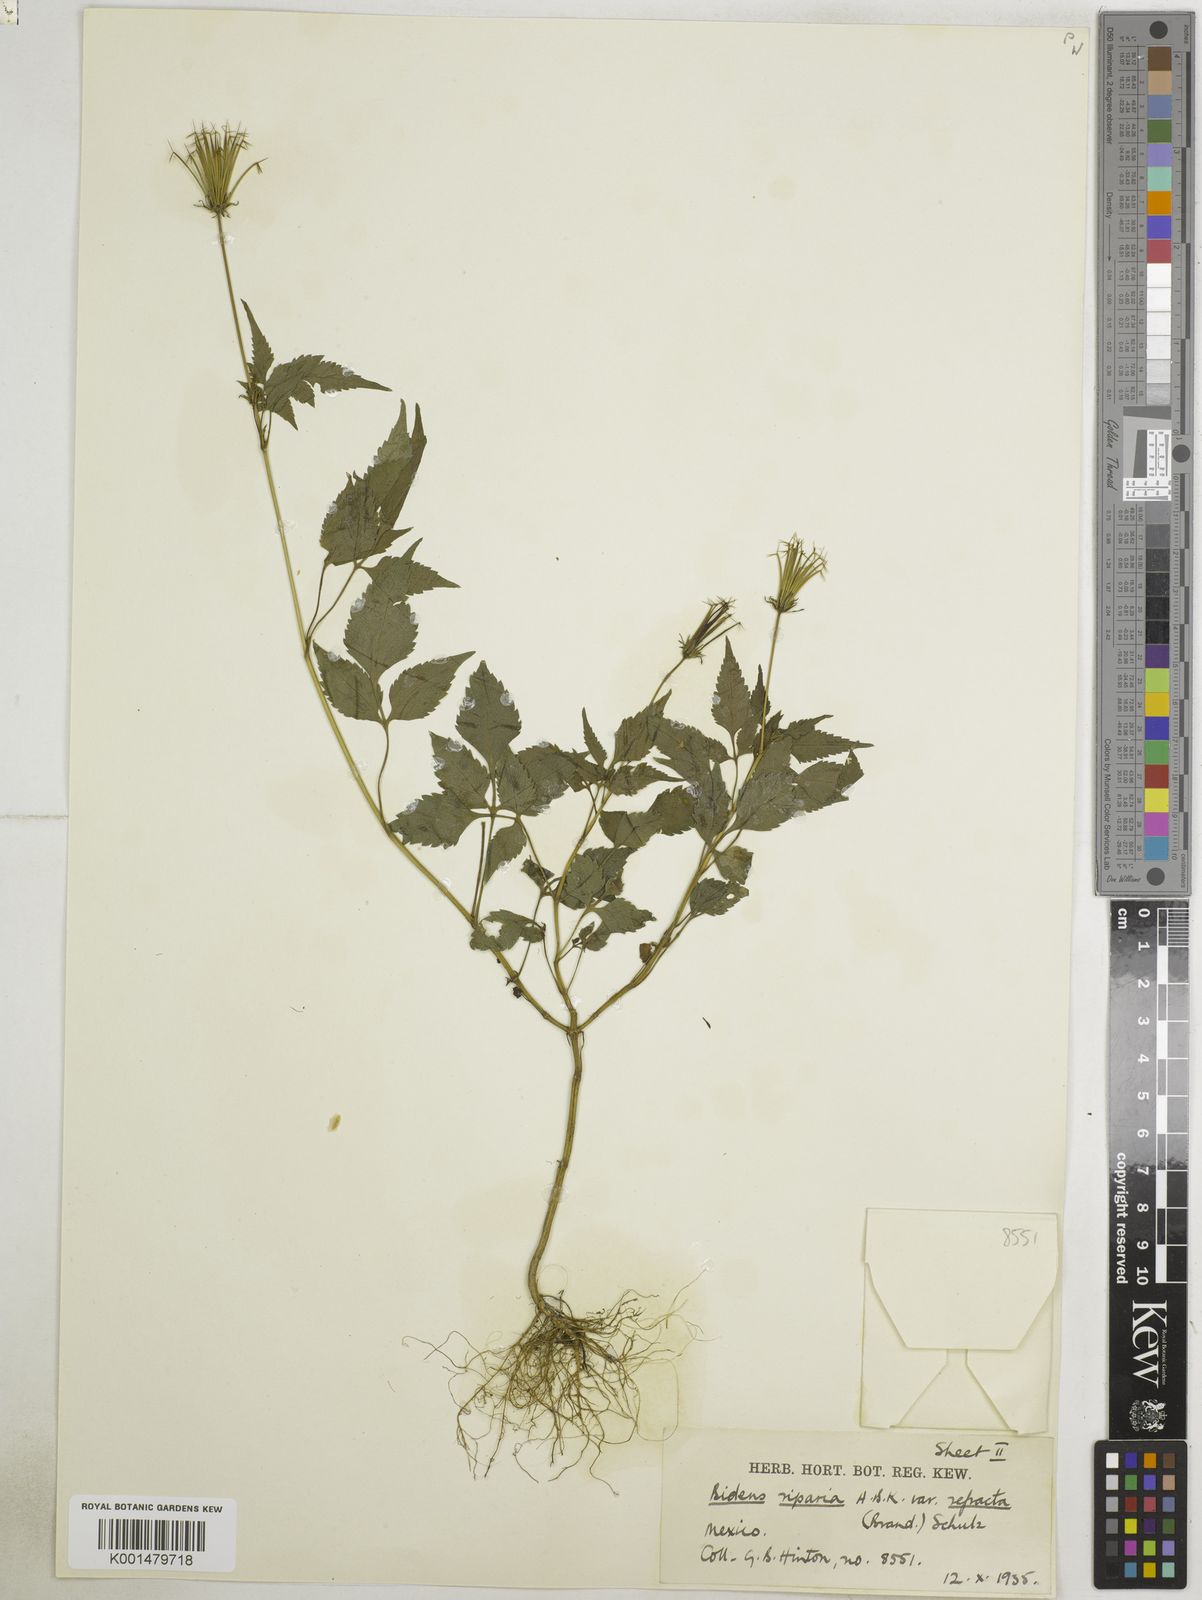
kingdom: Plantae
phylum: Tracheophyta
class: Magnoliopsida
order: Asterales
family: Asteraceae
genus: Bidens
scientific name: Bidens riparia
